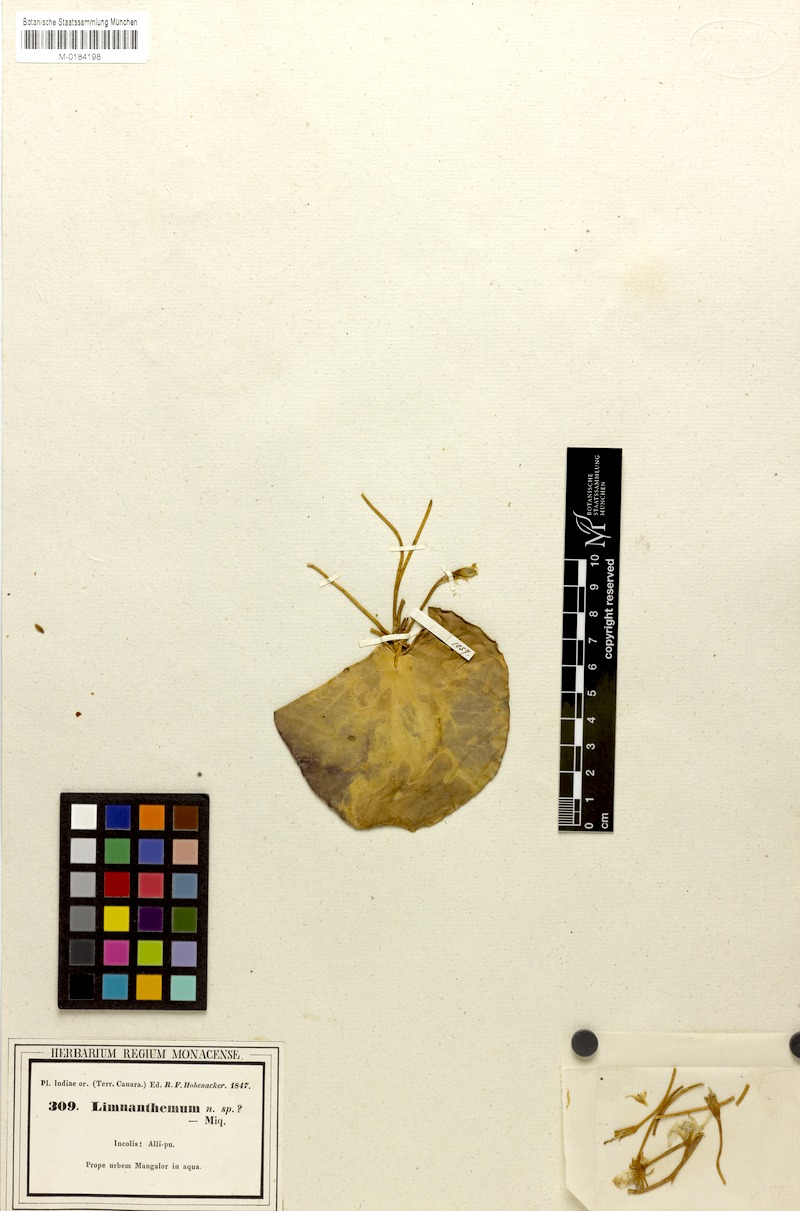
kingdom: Plantae
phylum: Tracheophyta
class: Magnoliopsida
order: Asterales
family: Menyanthaceae
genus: Nymphoides
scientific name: Nymphoides indica
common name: Water-snowflake
